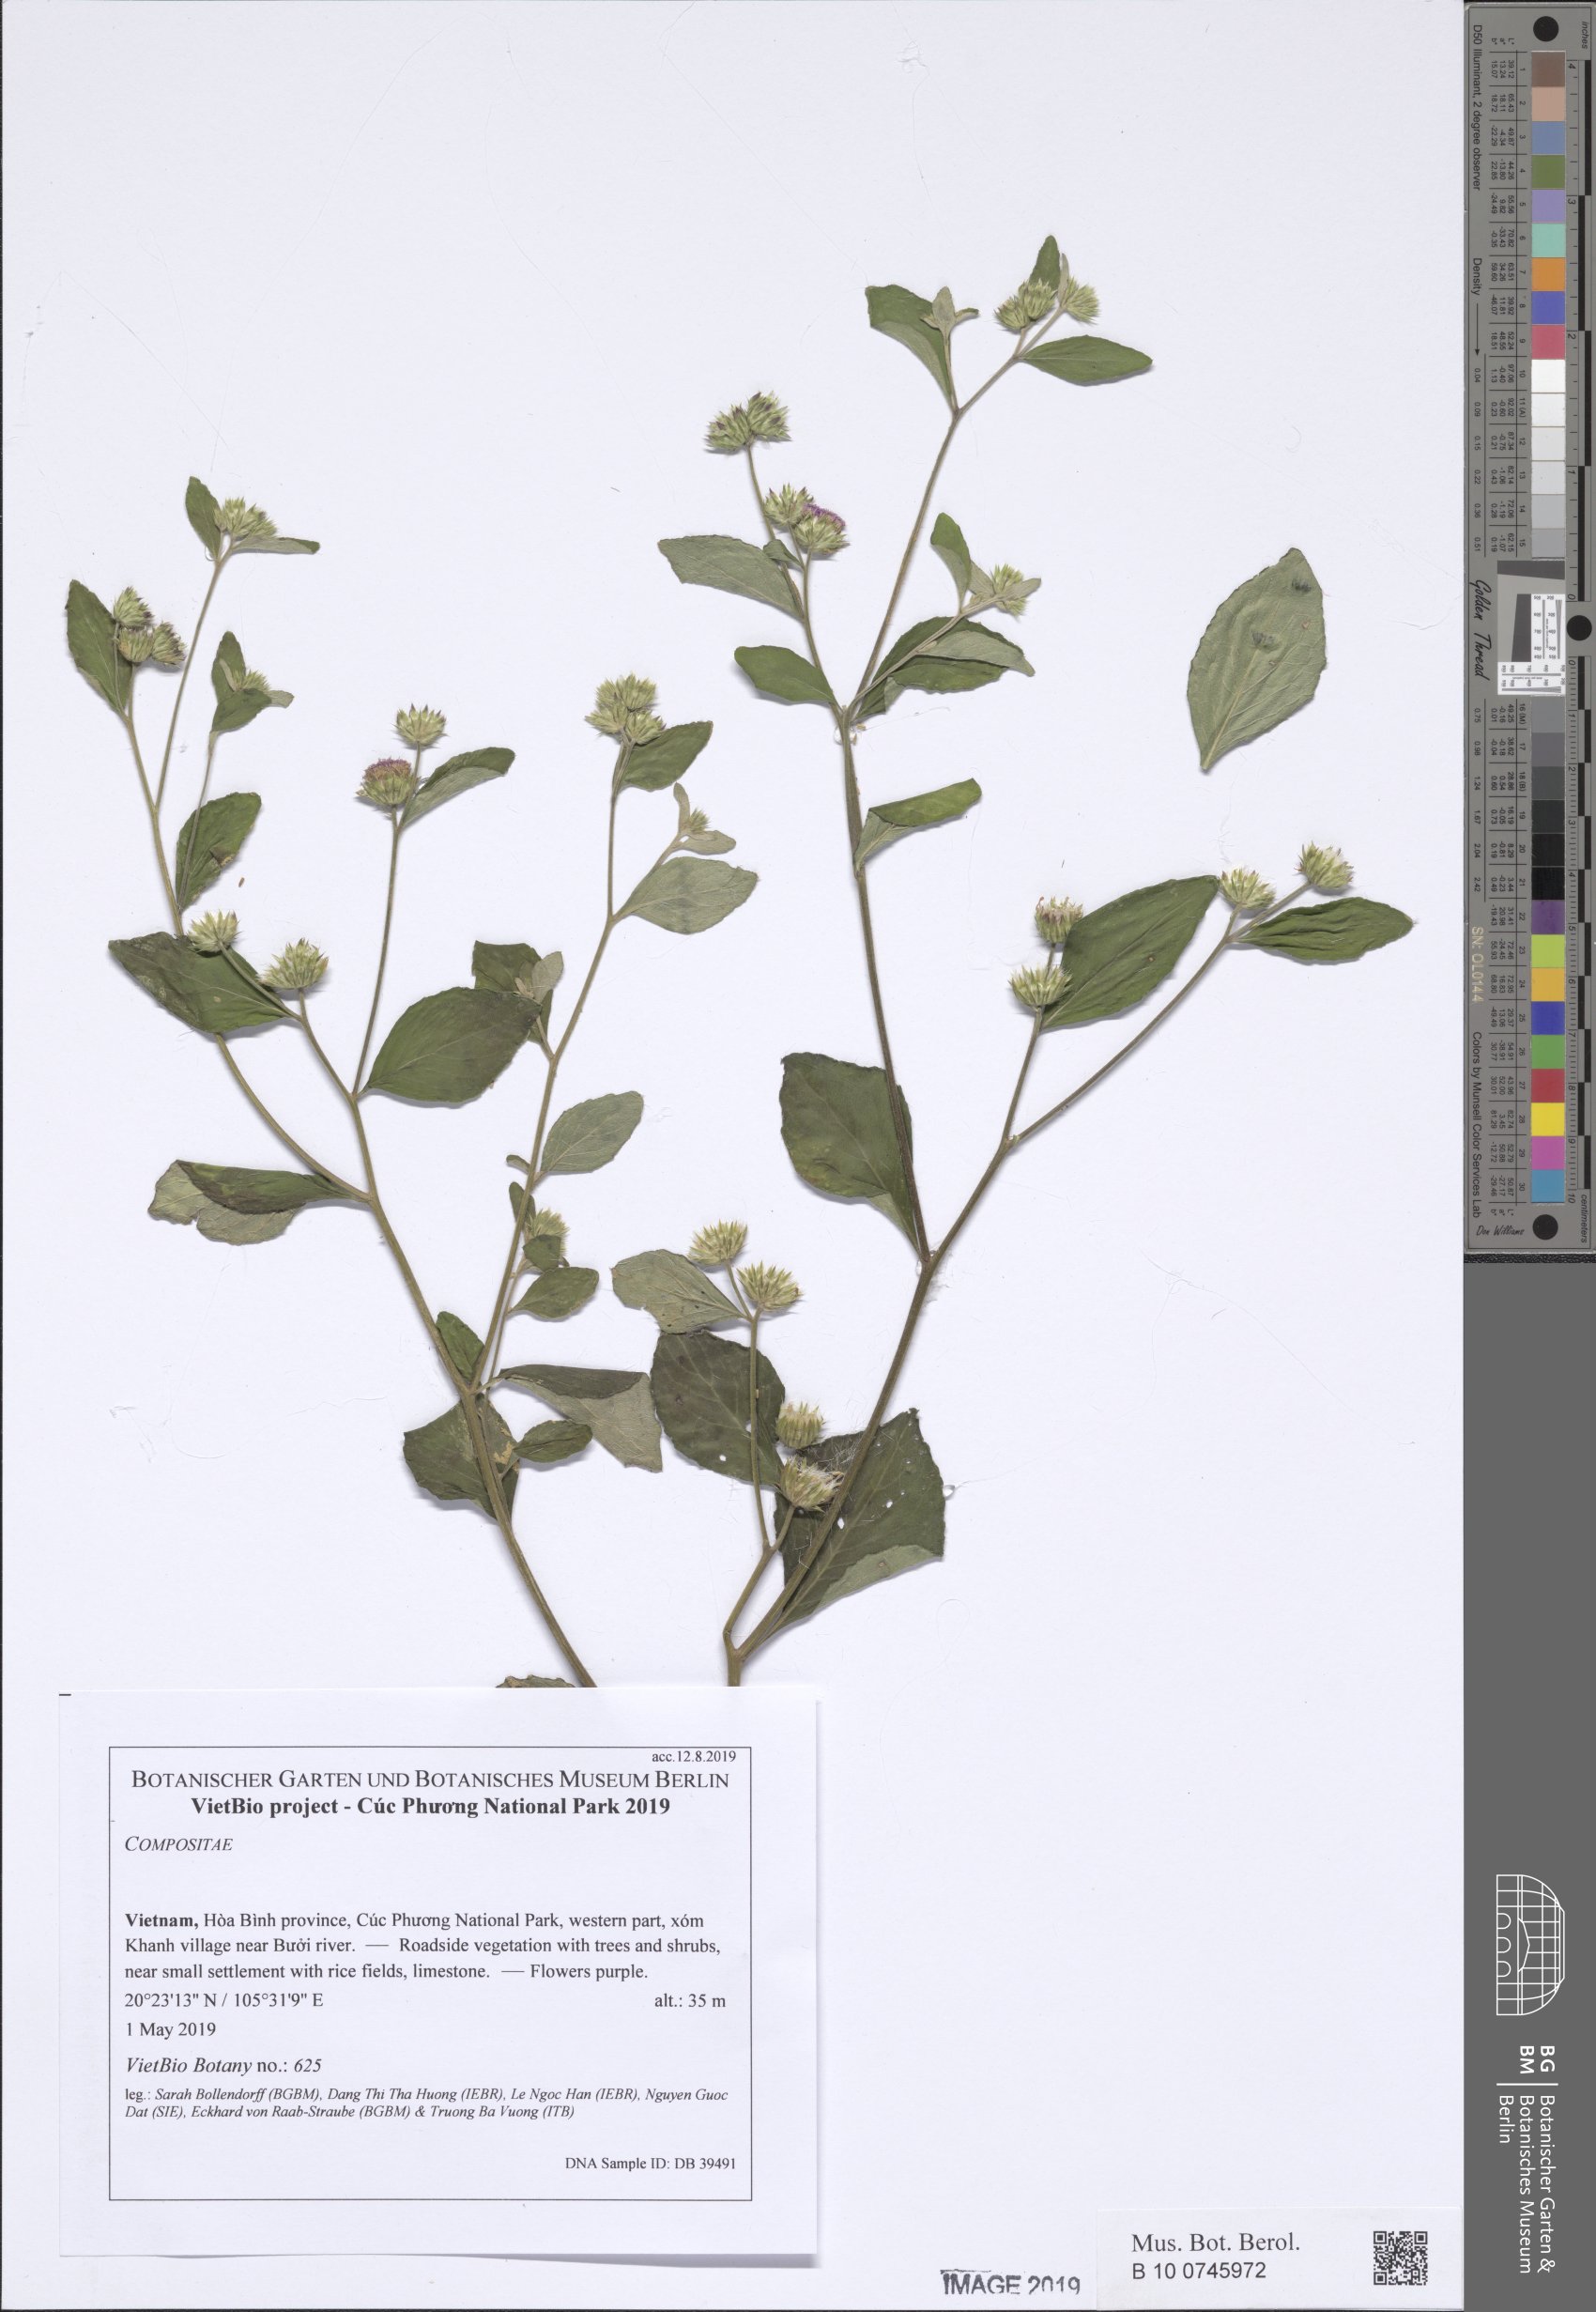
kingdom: Plantae
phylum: Tracheophyta
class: Magnoliopsida
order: Asterales
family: Asteraceae
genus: Cyanthillium
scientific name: Cyanthillium patulum
